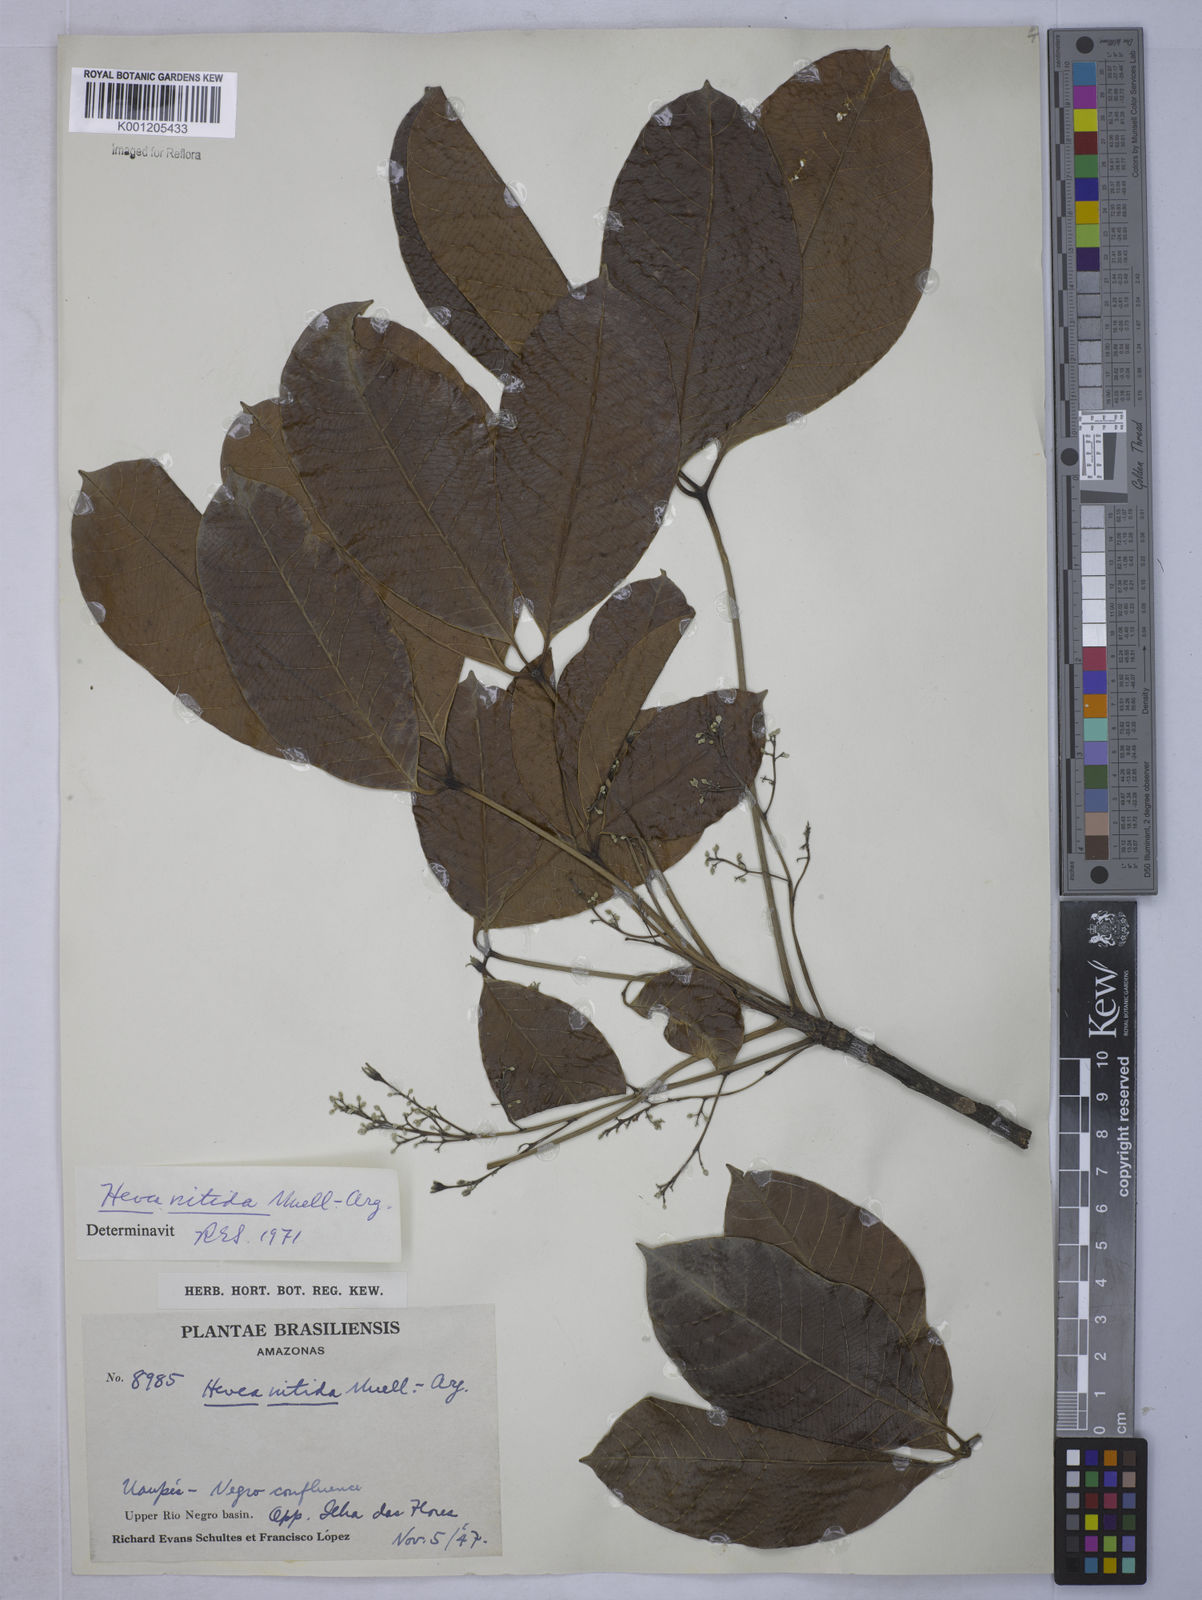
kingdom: Plantae
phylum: Tracheophyta
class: Magnoliopsida
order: Malpighiales
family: Euphorbiaceae
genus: Hevea
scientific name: Hevea
